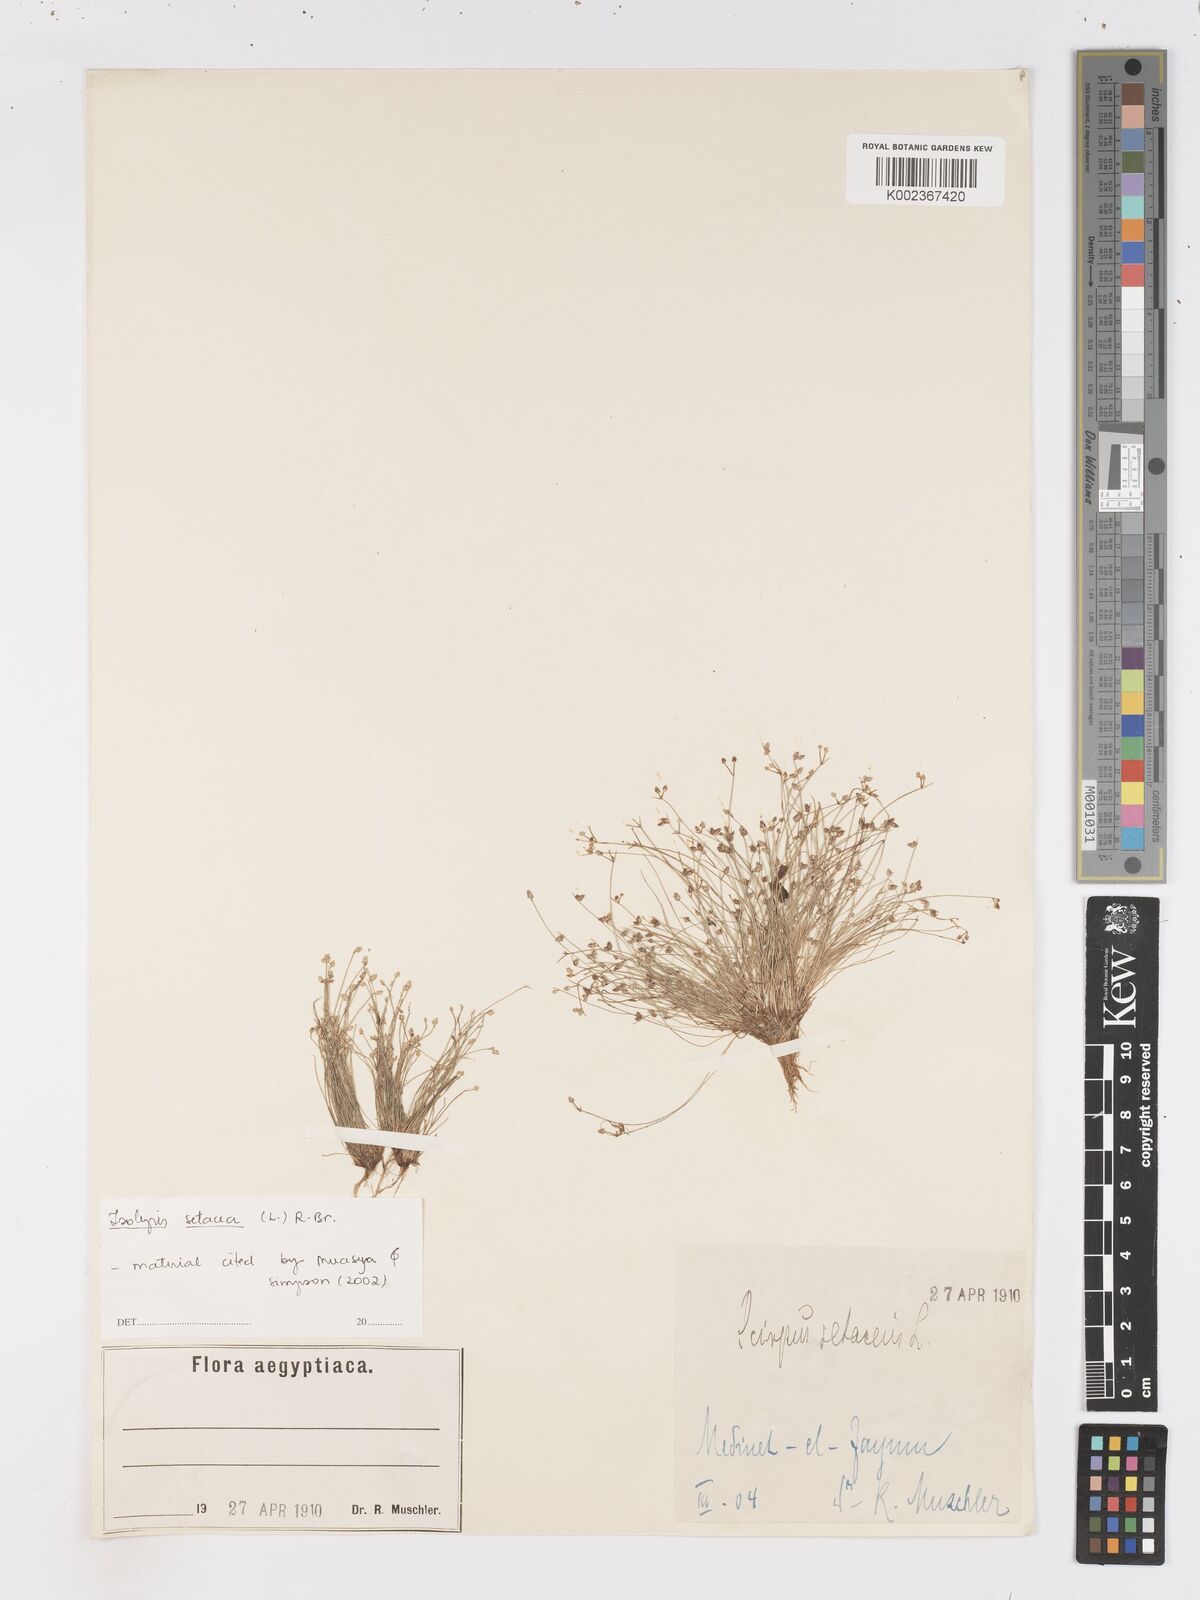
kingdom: Plantae
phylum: Tracheophyta
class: Liliopsida
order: Poales
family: Cyperaceae
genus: Isolepis
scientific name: Isolepis setacea
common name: Bristle club-rush
